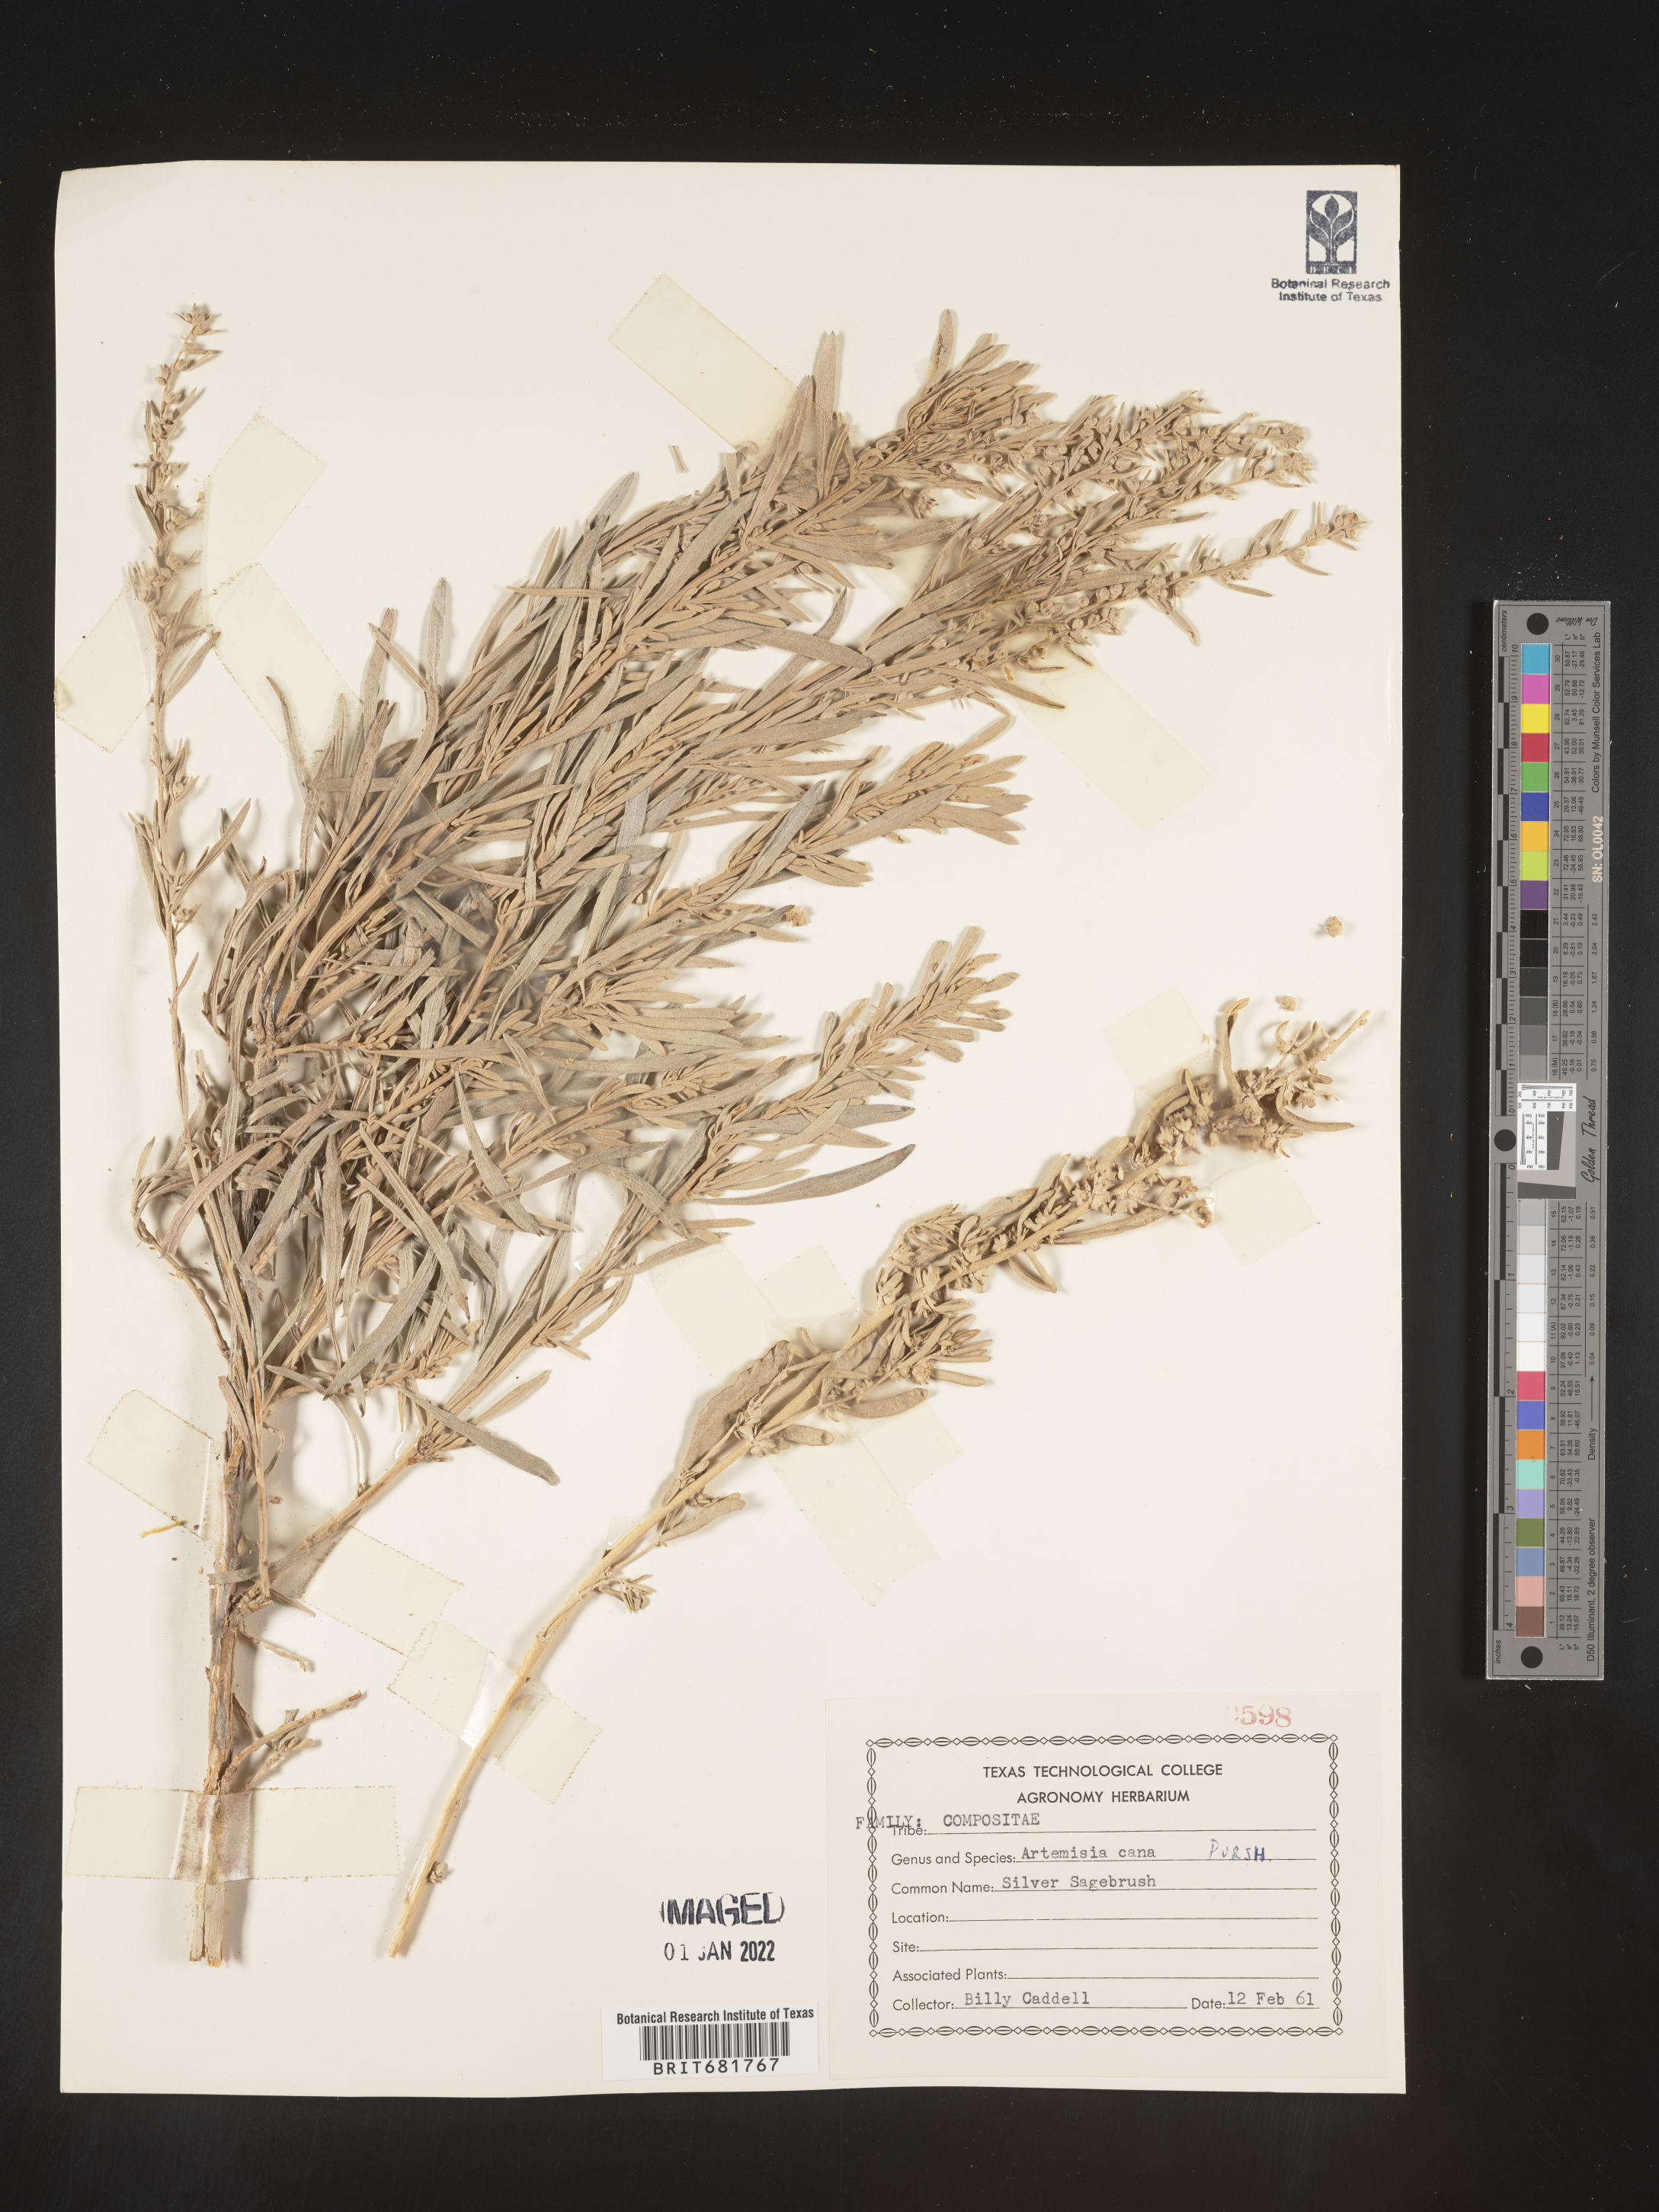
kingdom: Plantae
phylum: Tracheophyta
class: Magnoliopsida
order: Asterales
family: Asteraceae
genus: Artemisia
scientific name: Artemisia cana
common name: Silver sagebrush
